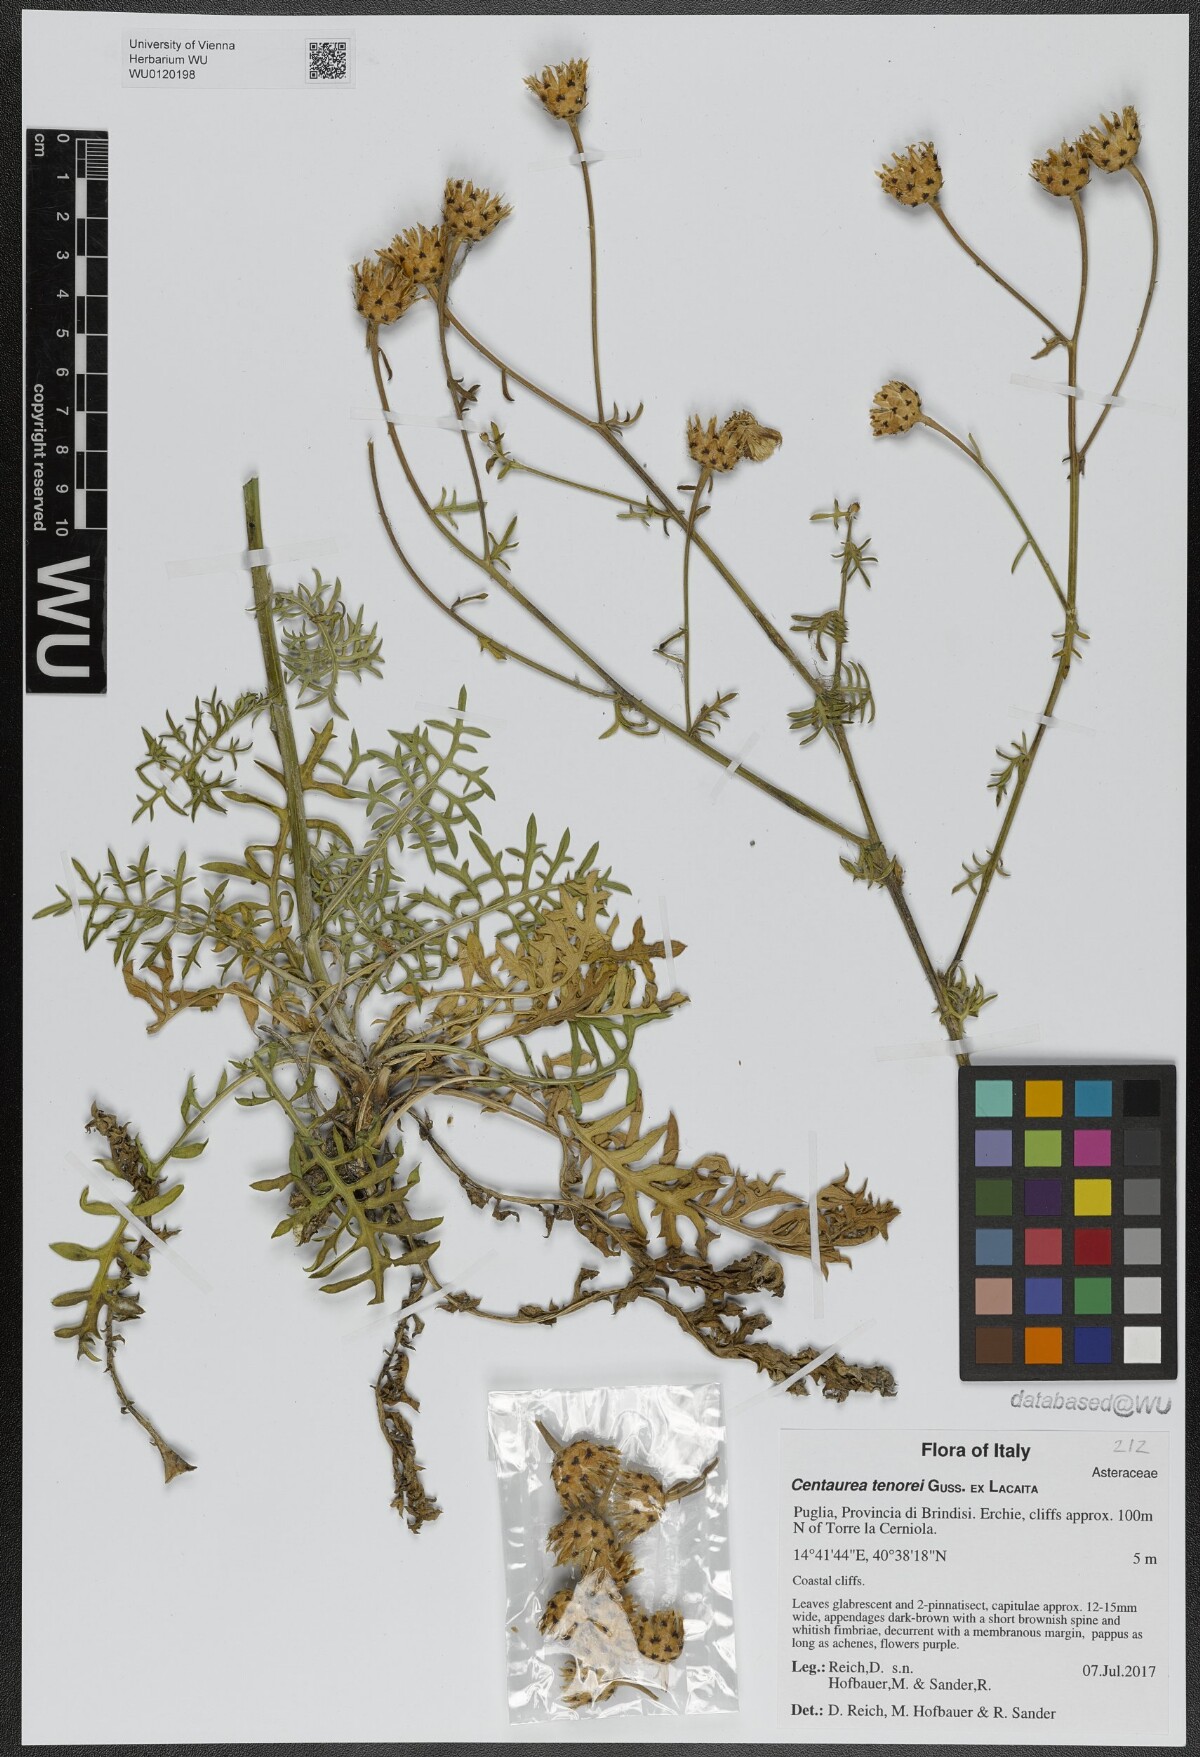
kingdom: Plantae
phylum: Tracheophyta
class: Magnoliopsida
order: Asterales
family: Asteraceae
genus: Centaurea
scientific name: Centaurea tenorei
